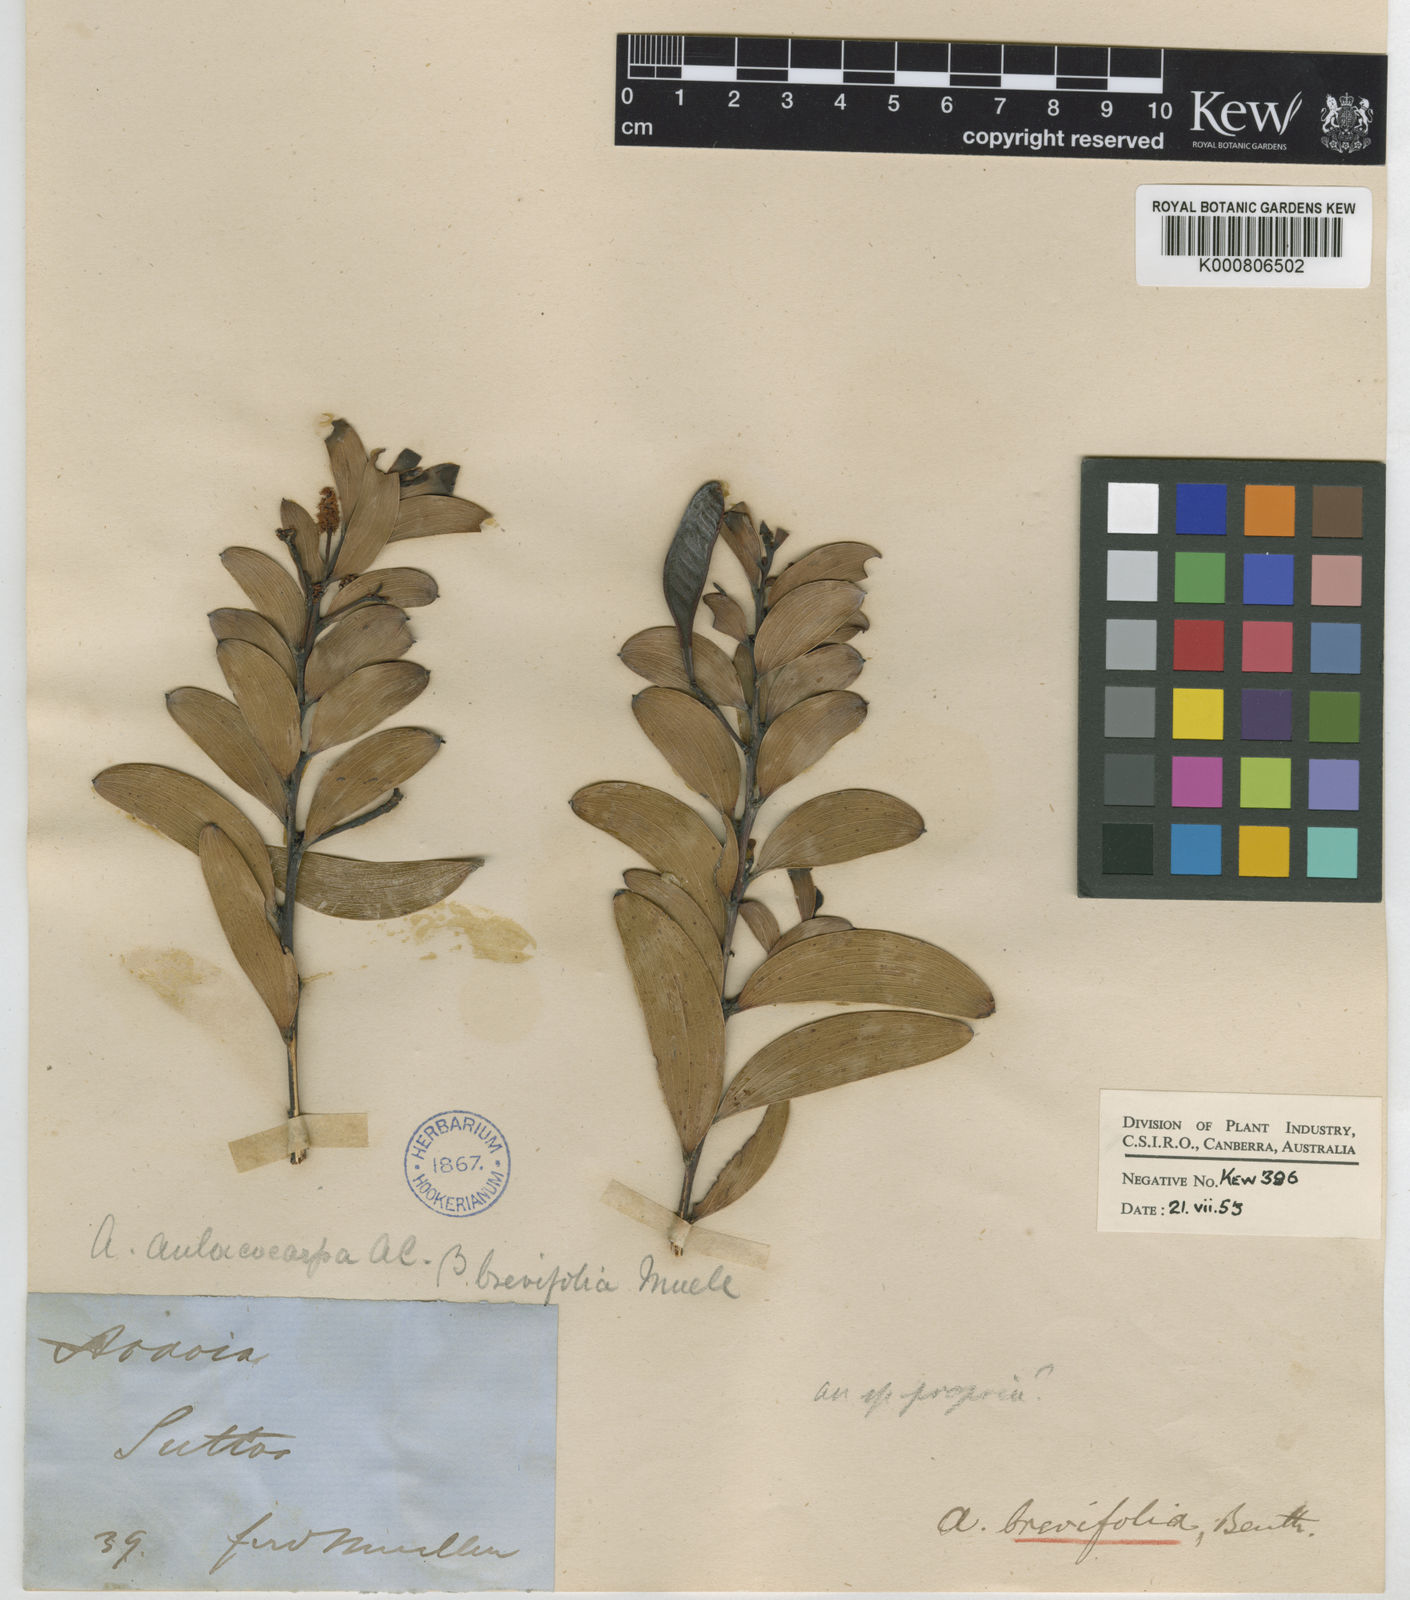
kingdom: Plantae
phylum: Tracheophyta
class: Magnoliopsida
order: Fabales
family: Fabaceae
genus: Acacia
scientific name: Acacia lazaridis
